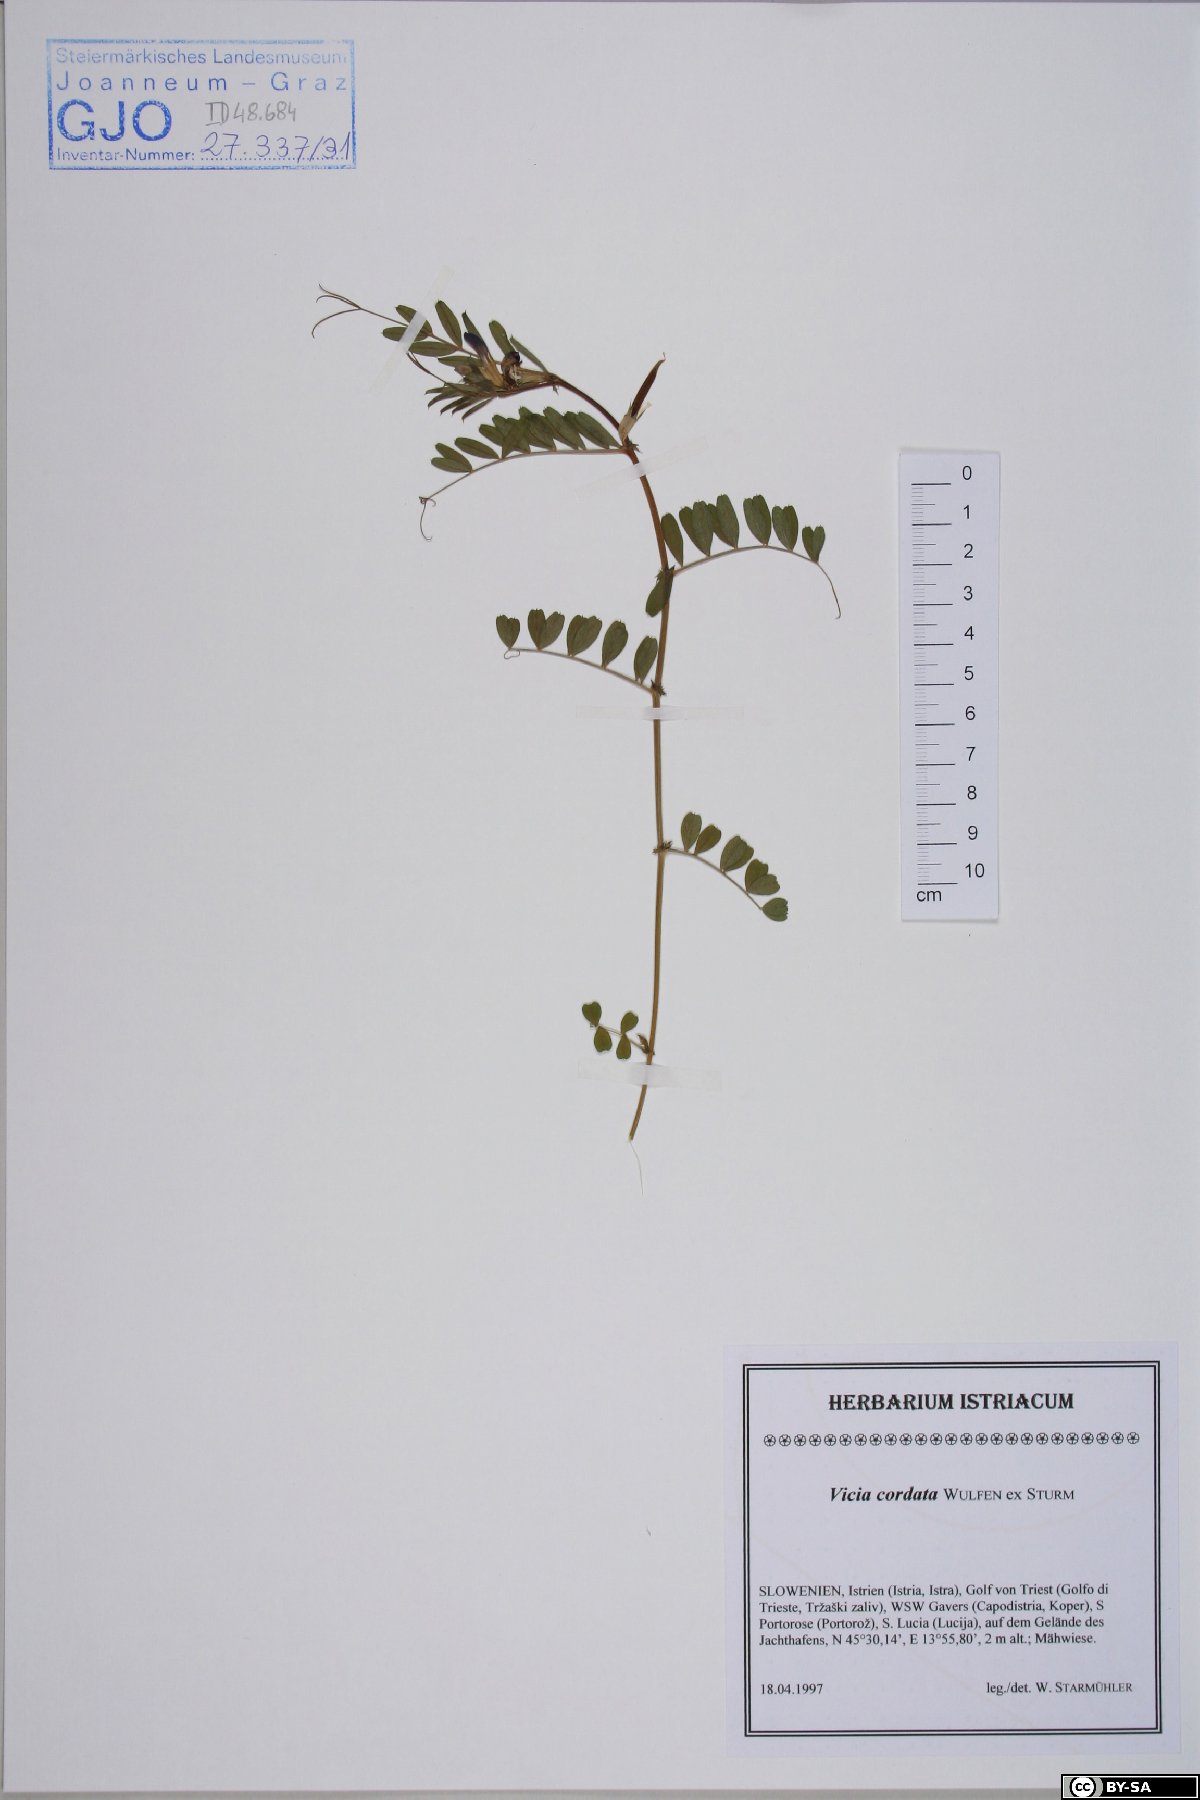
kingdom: Plantae
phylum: Tracheophyta
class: Magnoliopsida
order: Fabales
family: Fabaceae
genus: Vicia
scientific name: Vicia sativa
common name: Garden vetch
